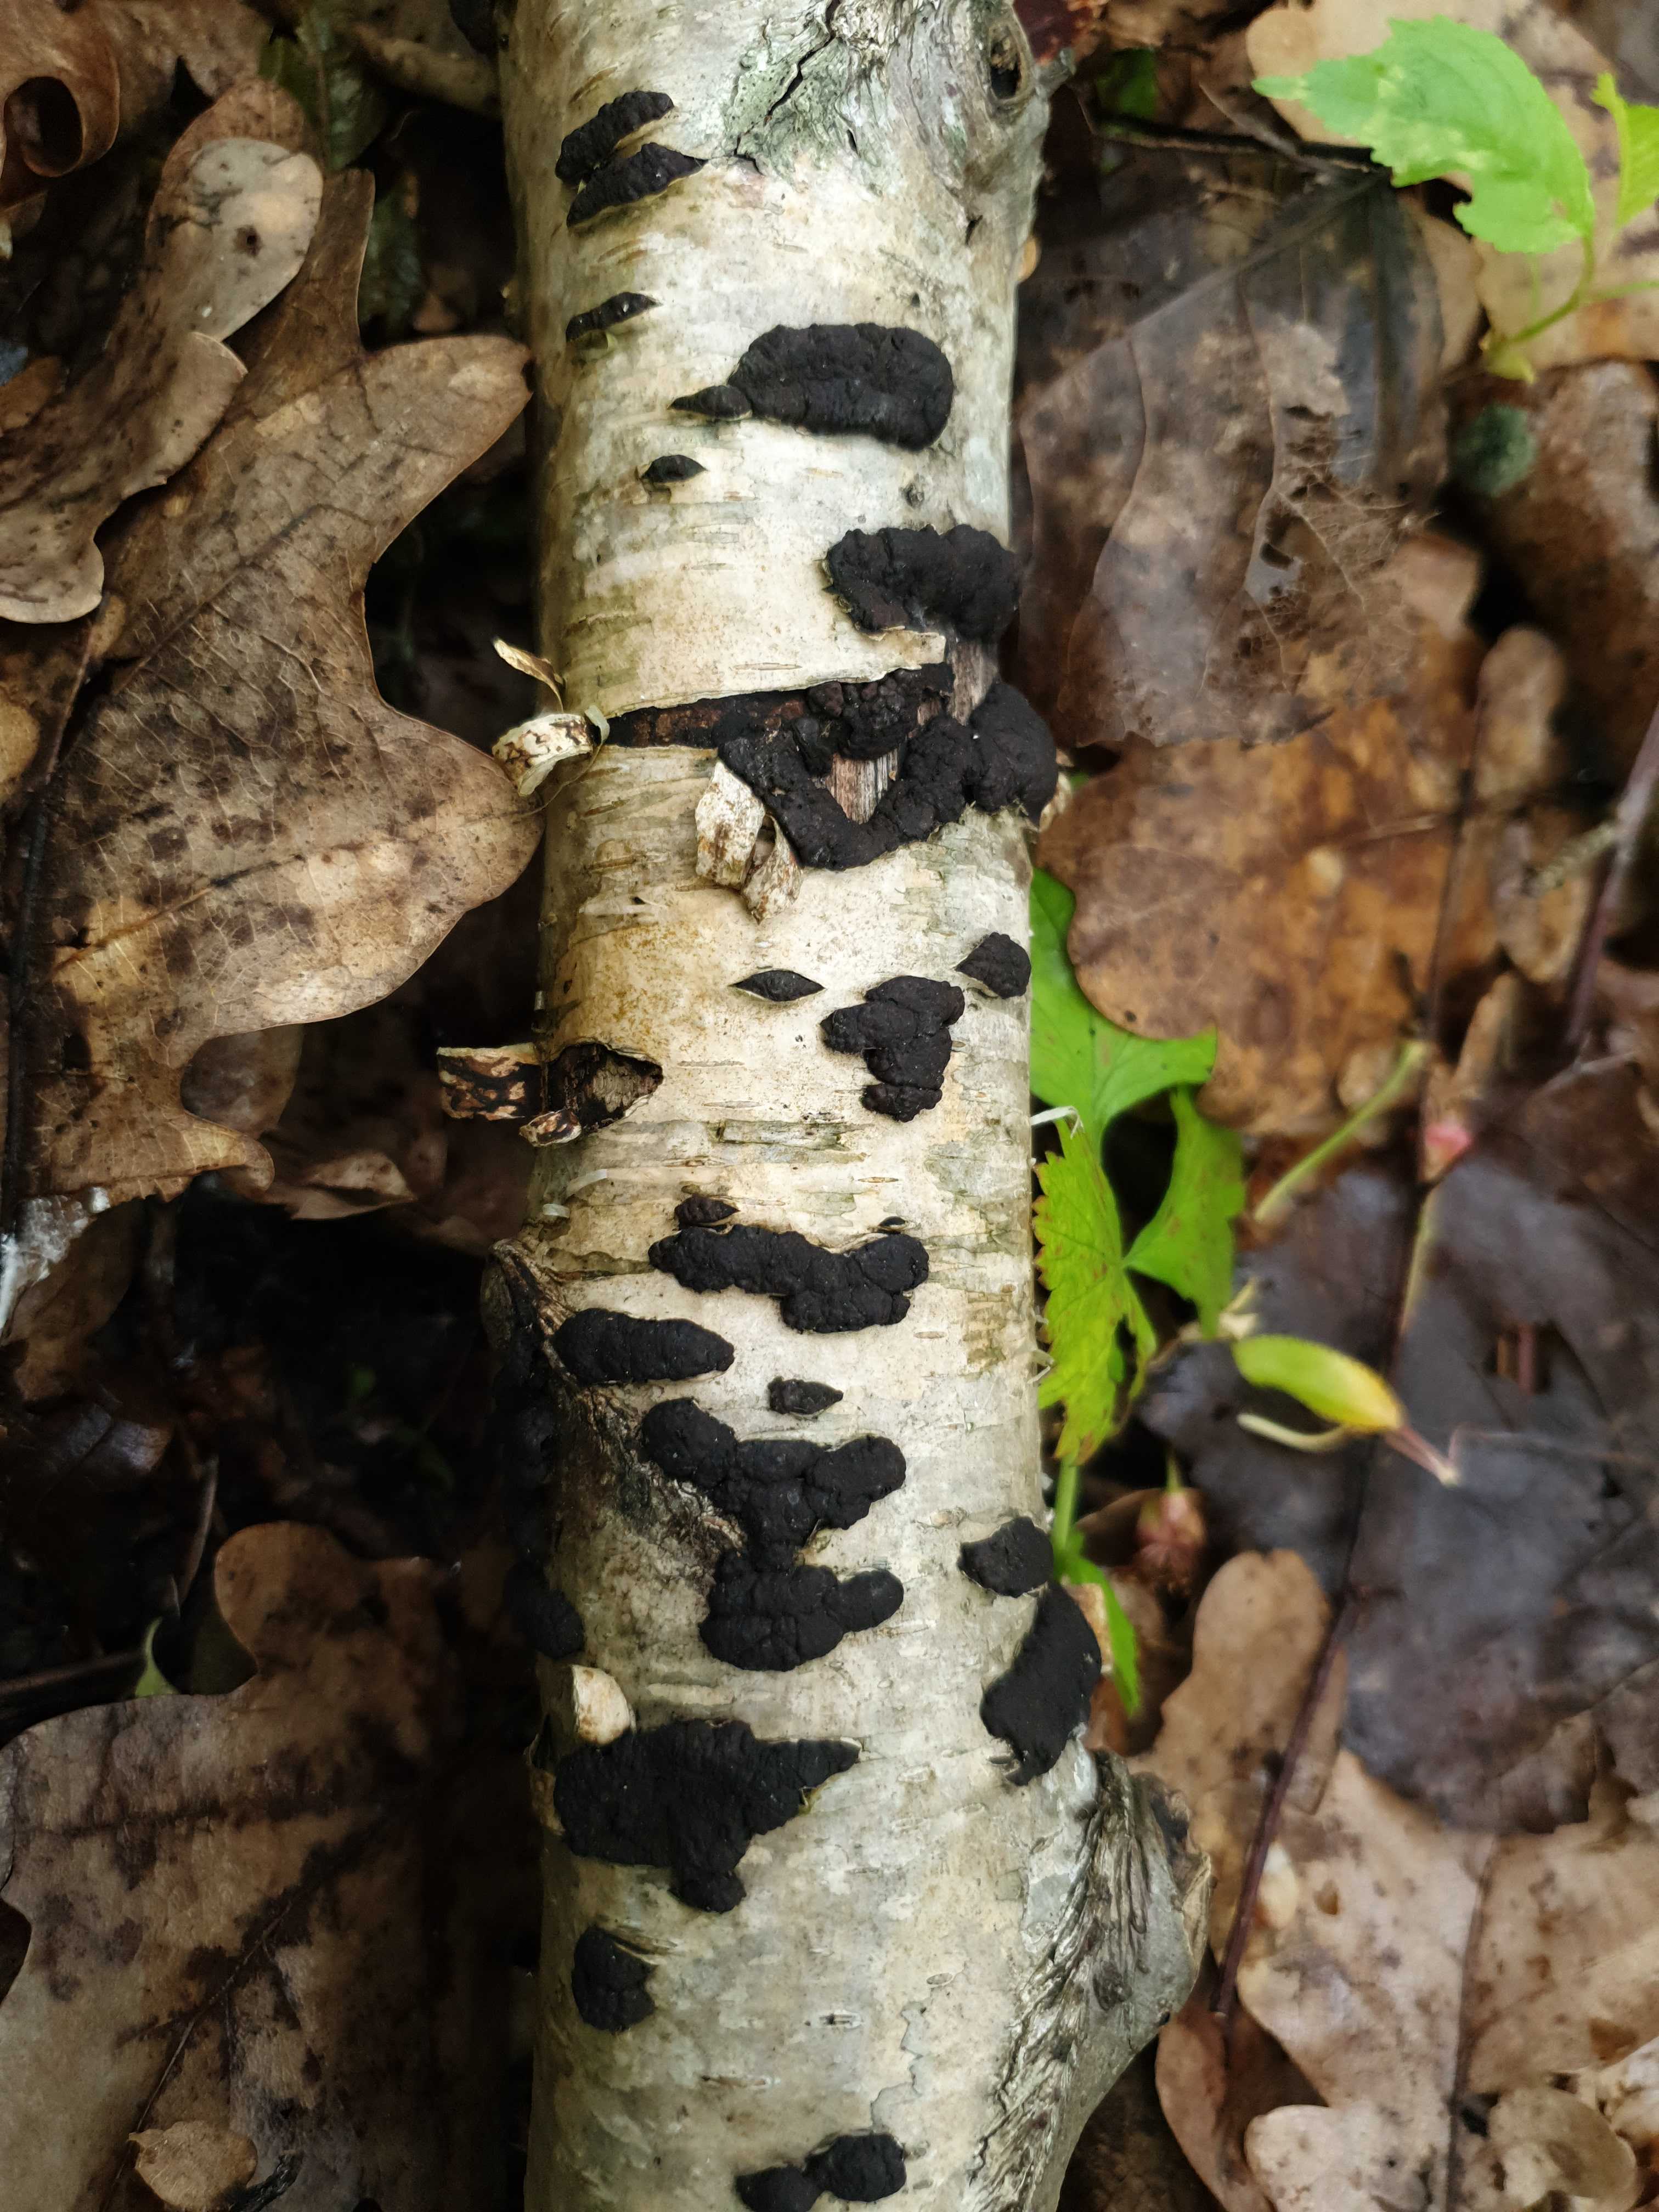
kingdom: Fungi
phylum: Ascomycota
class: Sordariomycetes
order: Xylariales
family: Hypoxylaceae
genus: Jackrogersella
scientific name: Jackrogersella multiformis
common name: foranderlig kulbær
